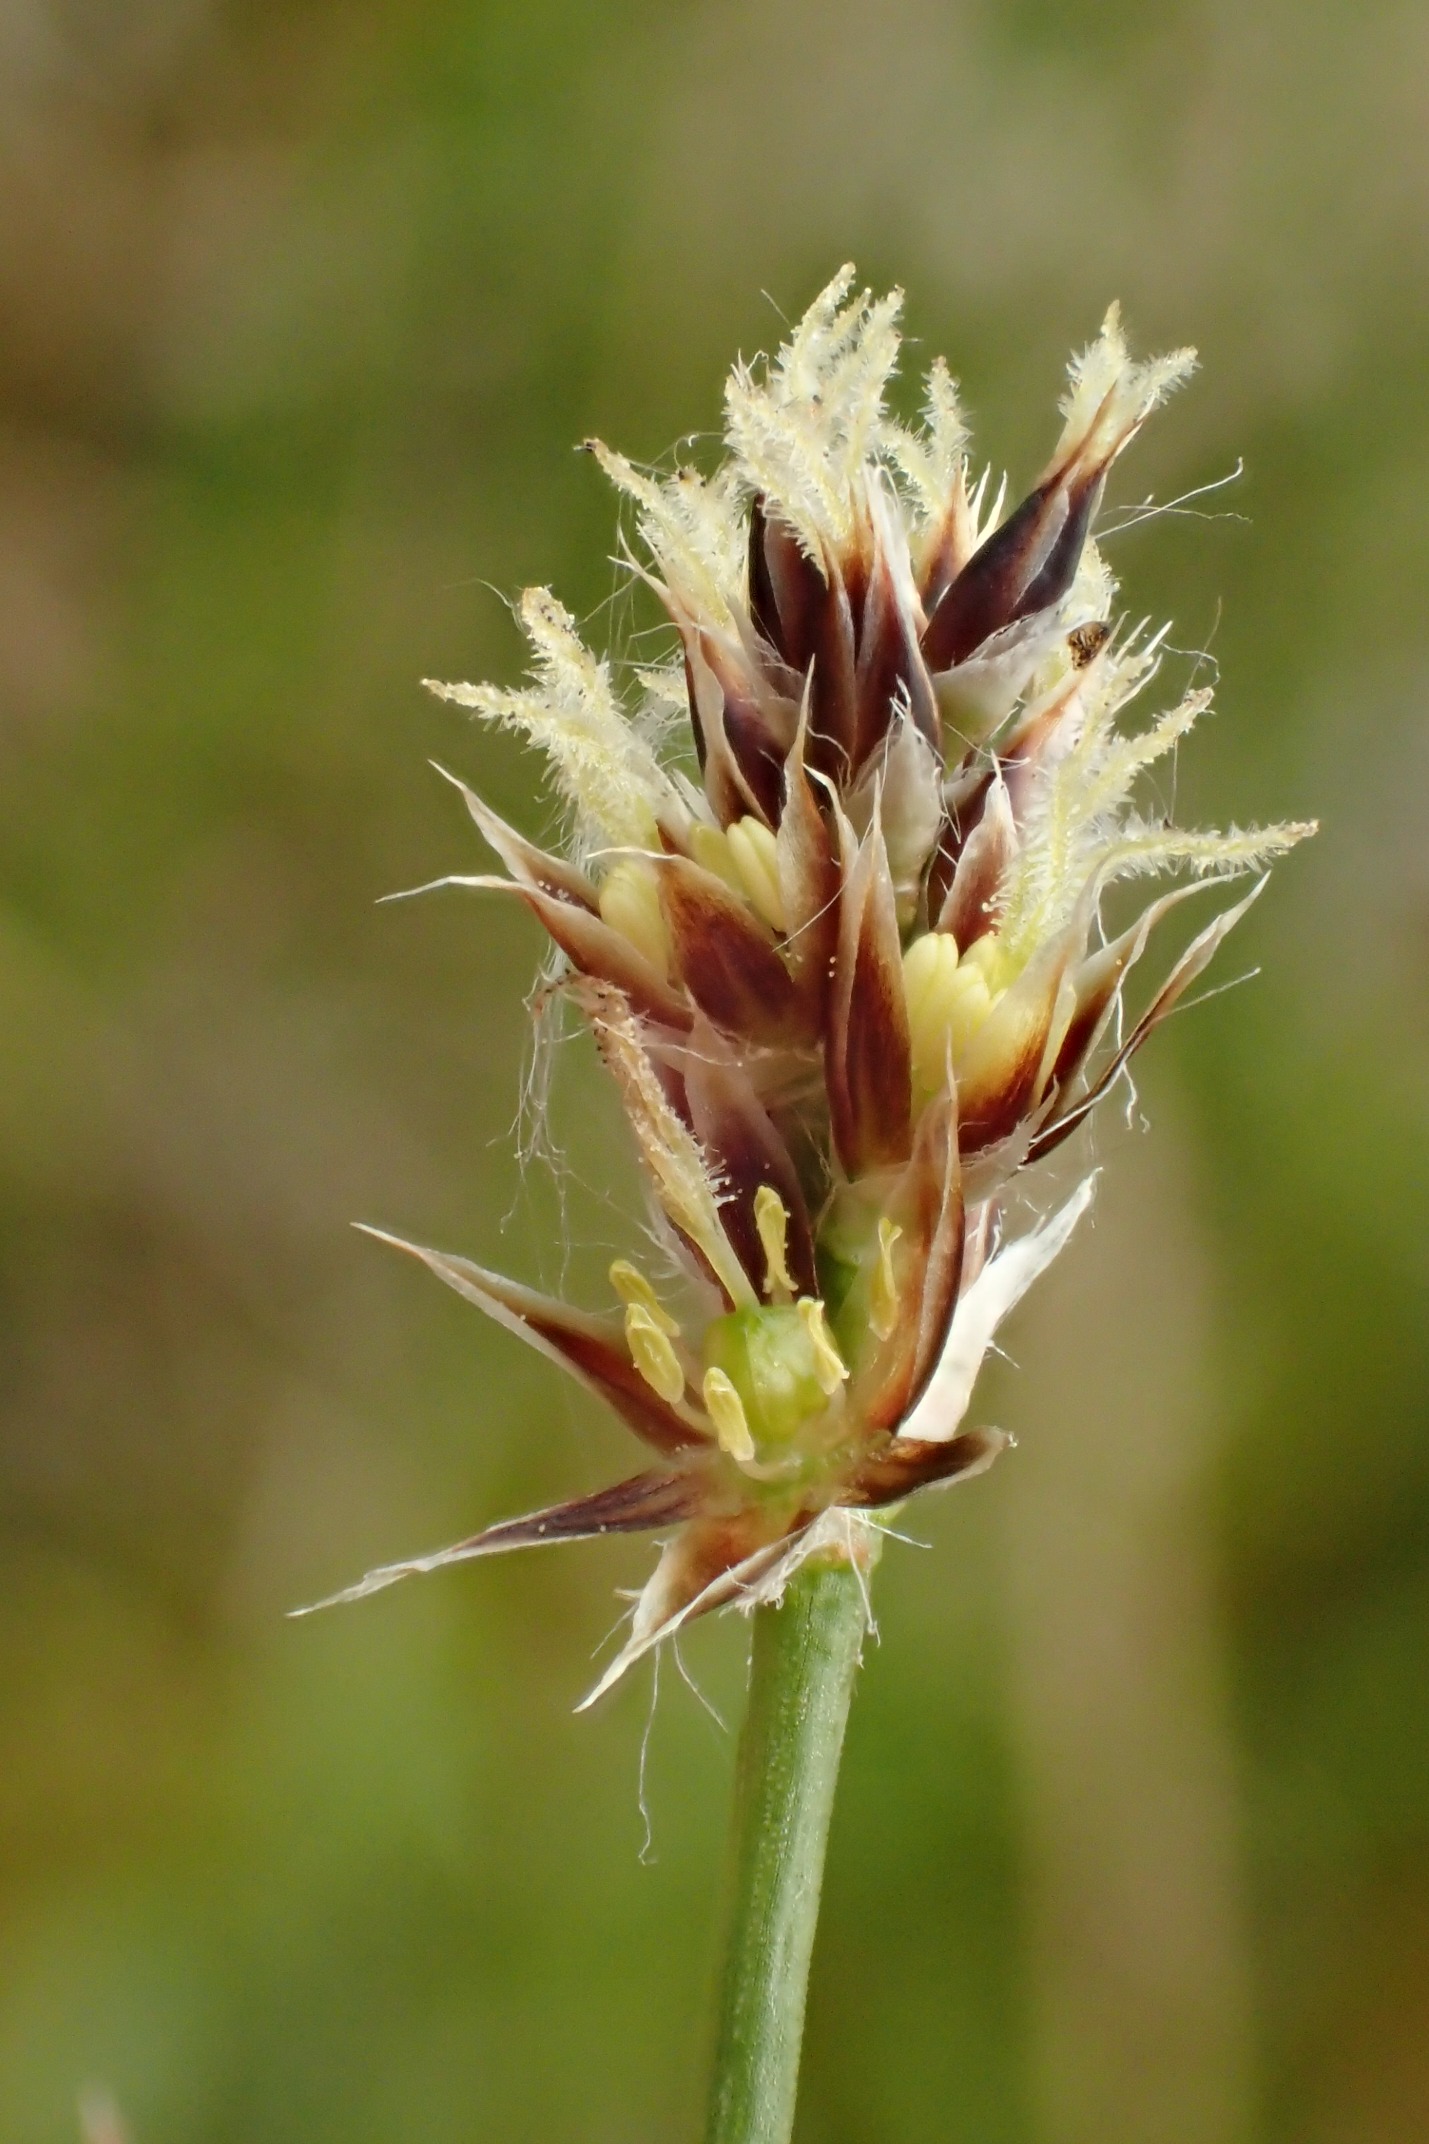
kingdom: Plantae
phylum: Tracheophyta
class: Liliopsida
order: Poales
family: Juncaceae
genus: Luzula
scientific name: Luzula congesta
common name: Hoved-frytle
